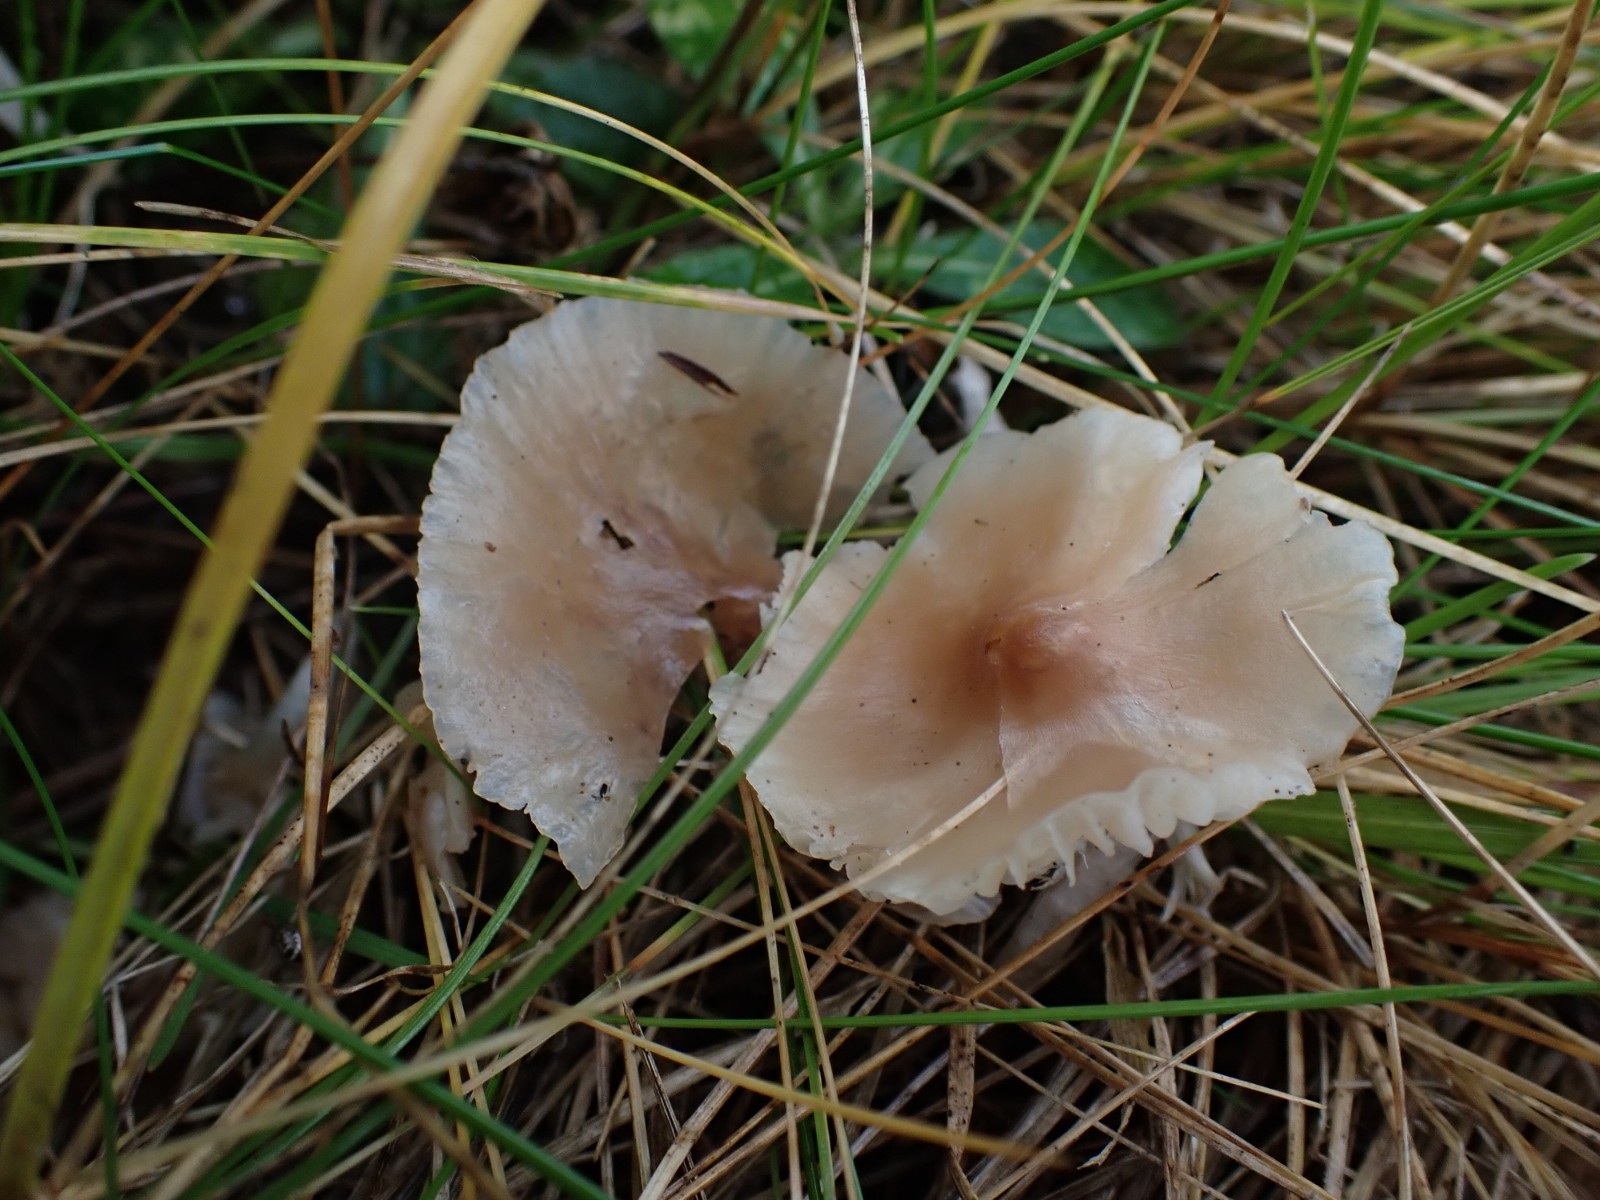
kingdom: Fungi
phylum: Basidiomycota
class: Agaricomycetes
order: Agaricales
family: Hygrophoraceae
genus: Cuphophyllus
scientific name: Cuphophyllus colemannianus
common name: rødbrun vokshat
